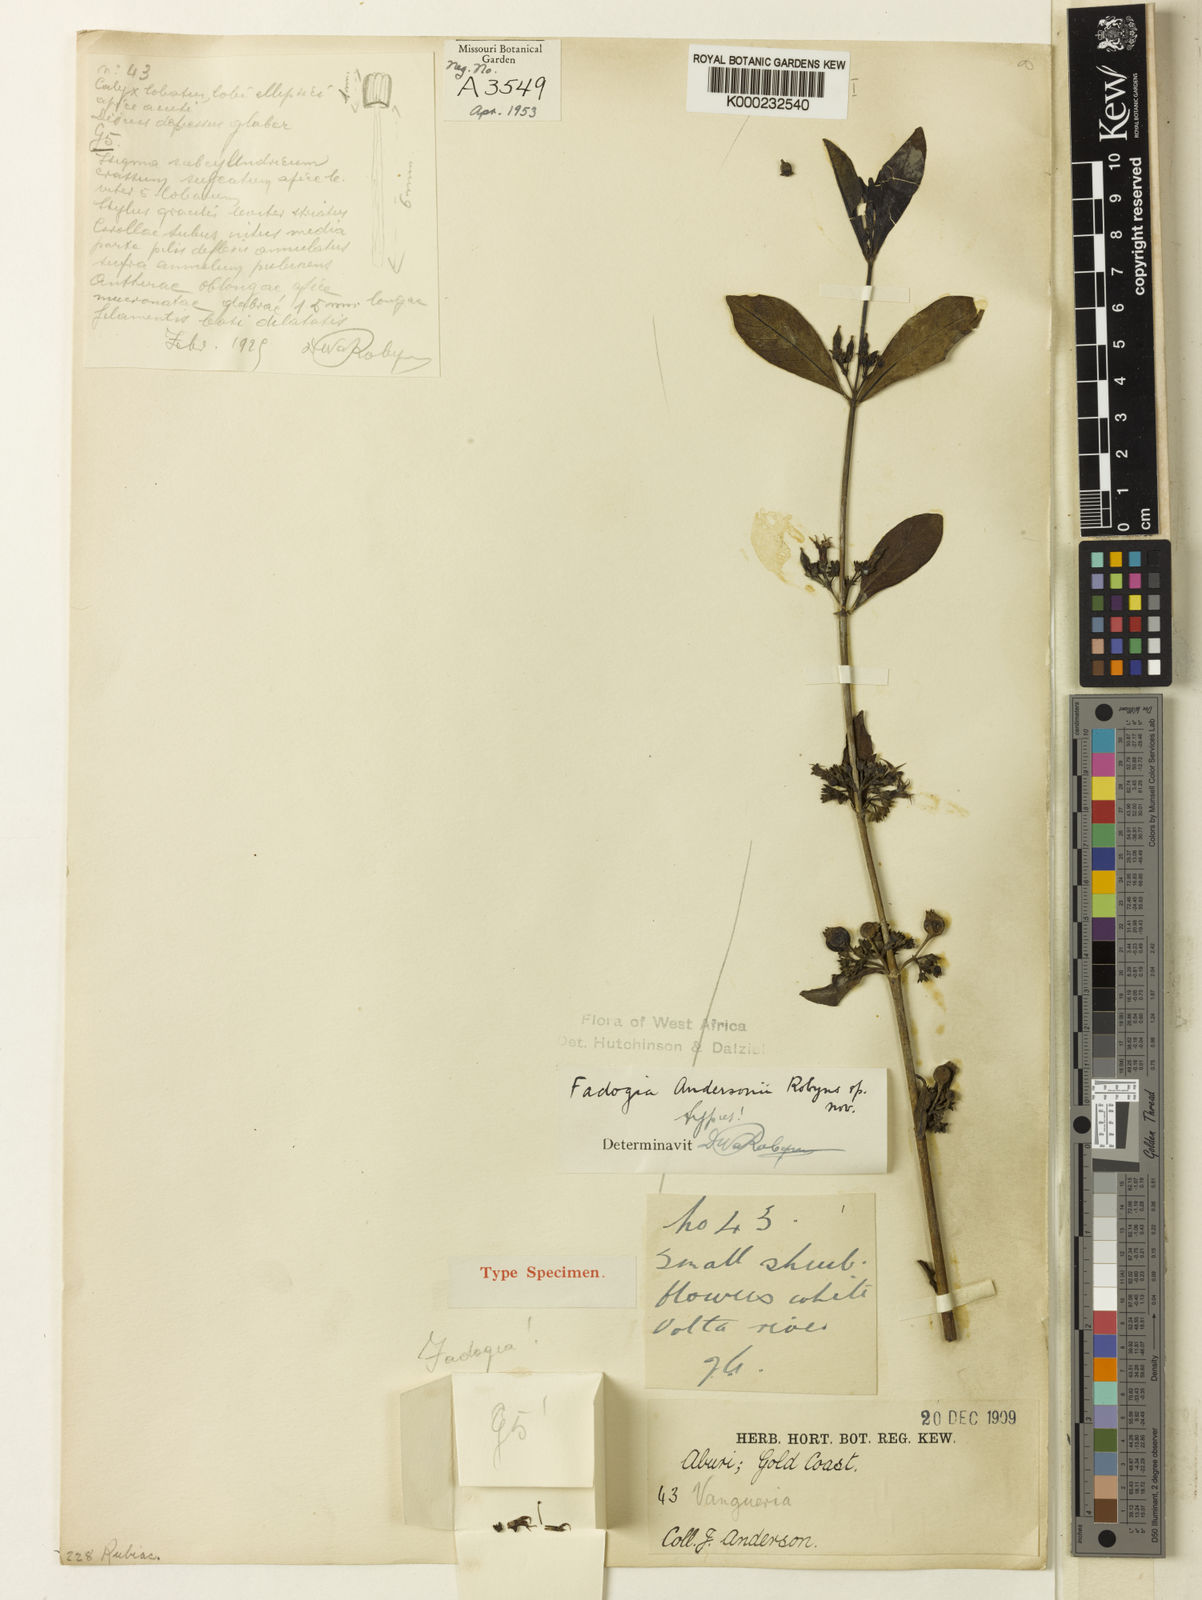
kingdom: Plantae
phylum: Tracheophyta
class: Magnoliopsida
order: Gentianales
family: Rubiaceae
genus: Fadogia
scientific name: Fadogia andersonii
